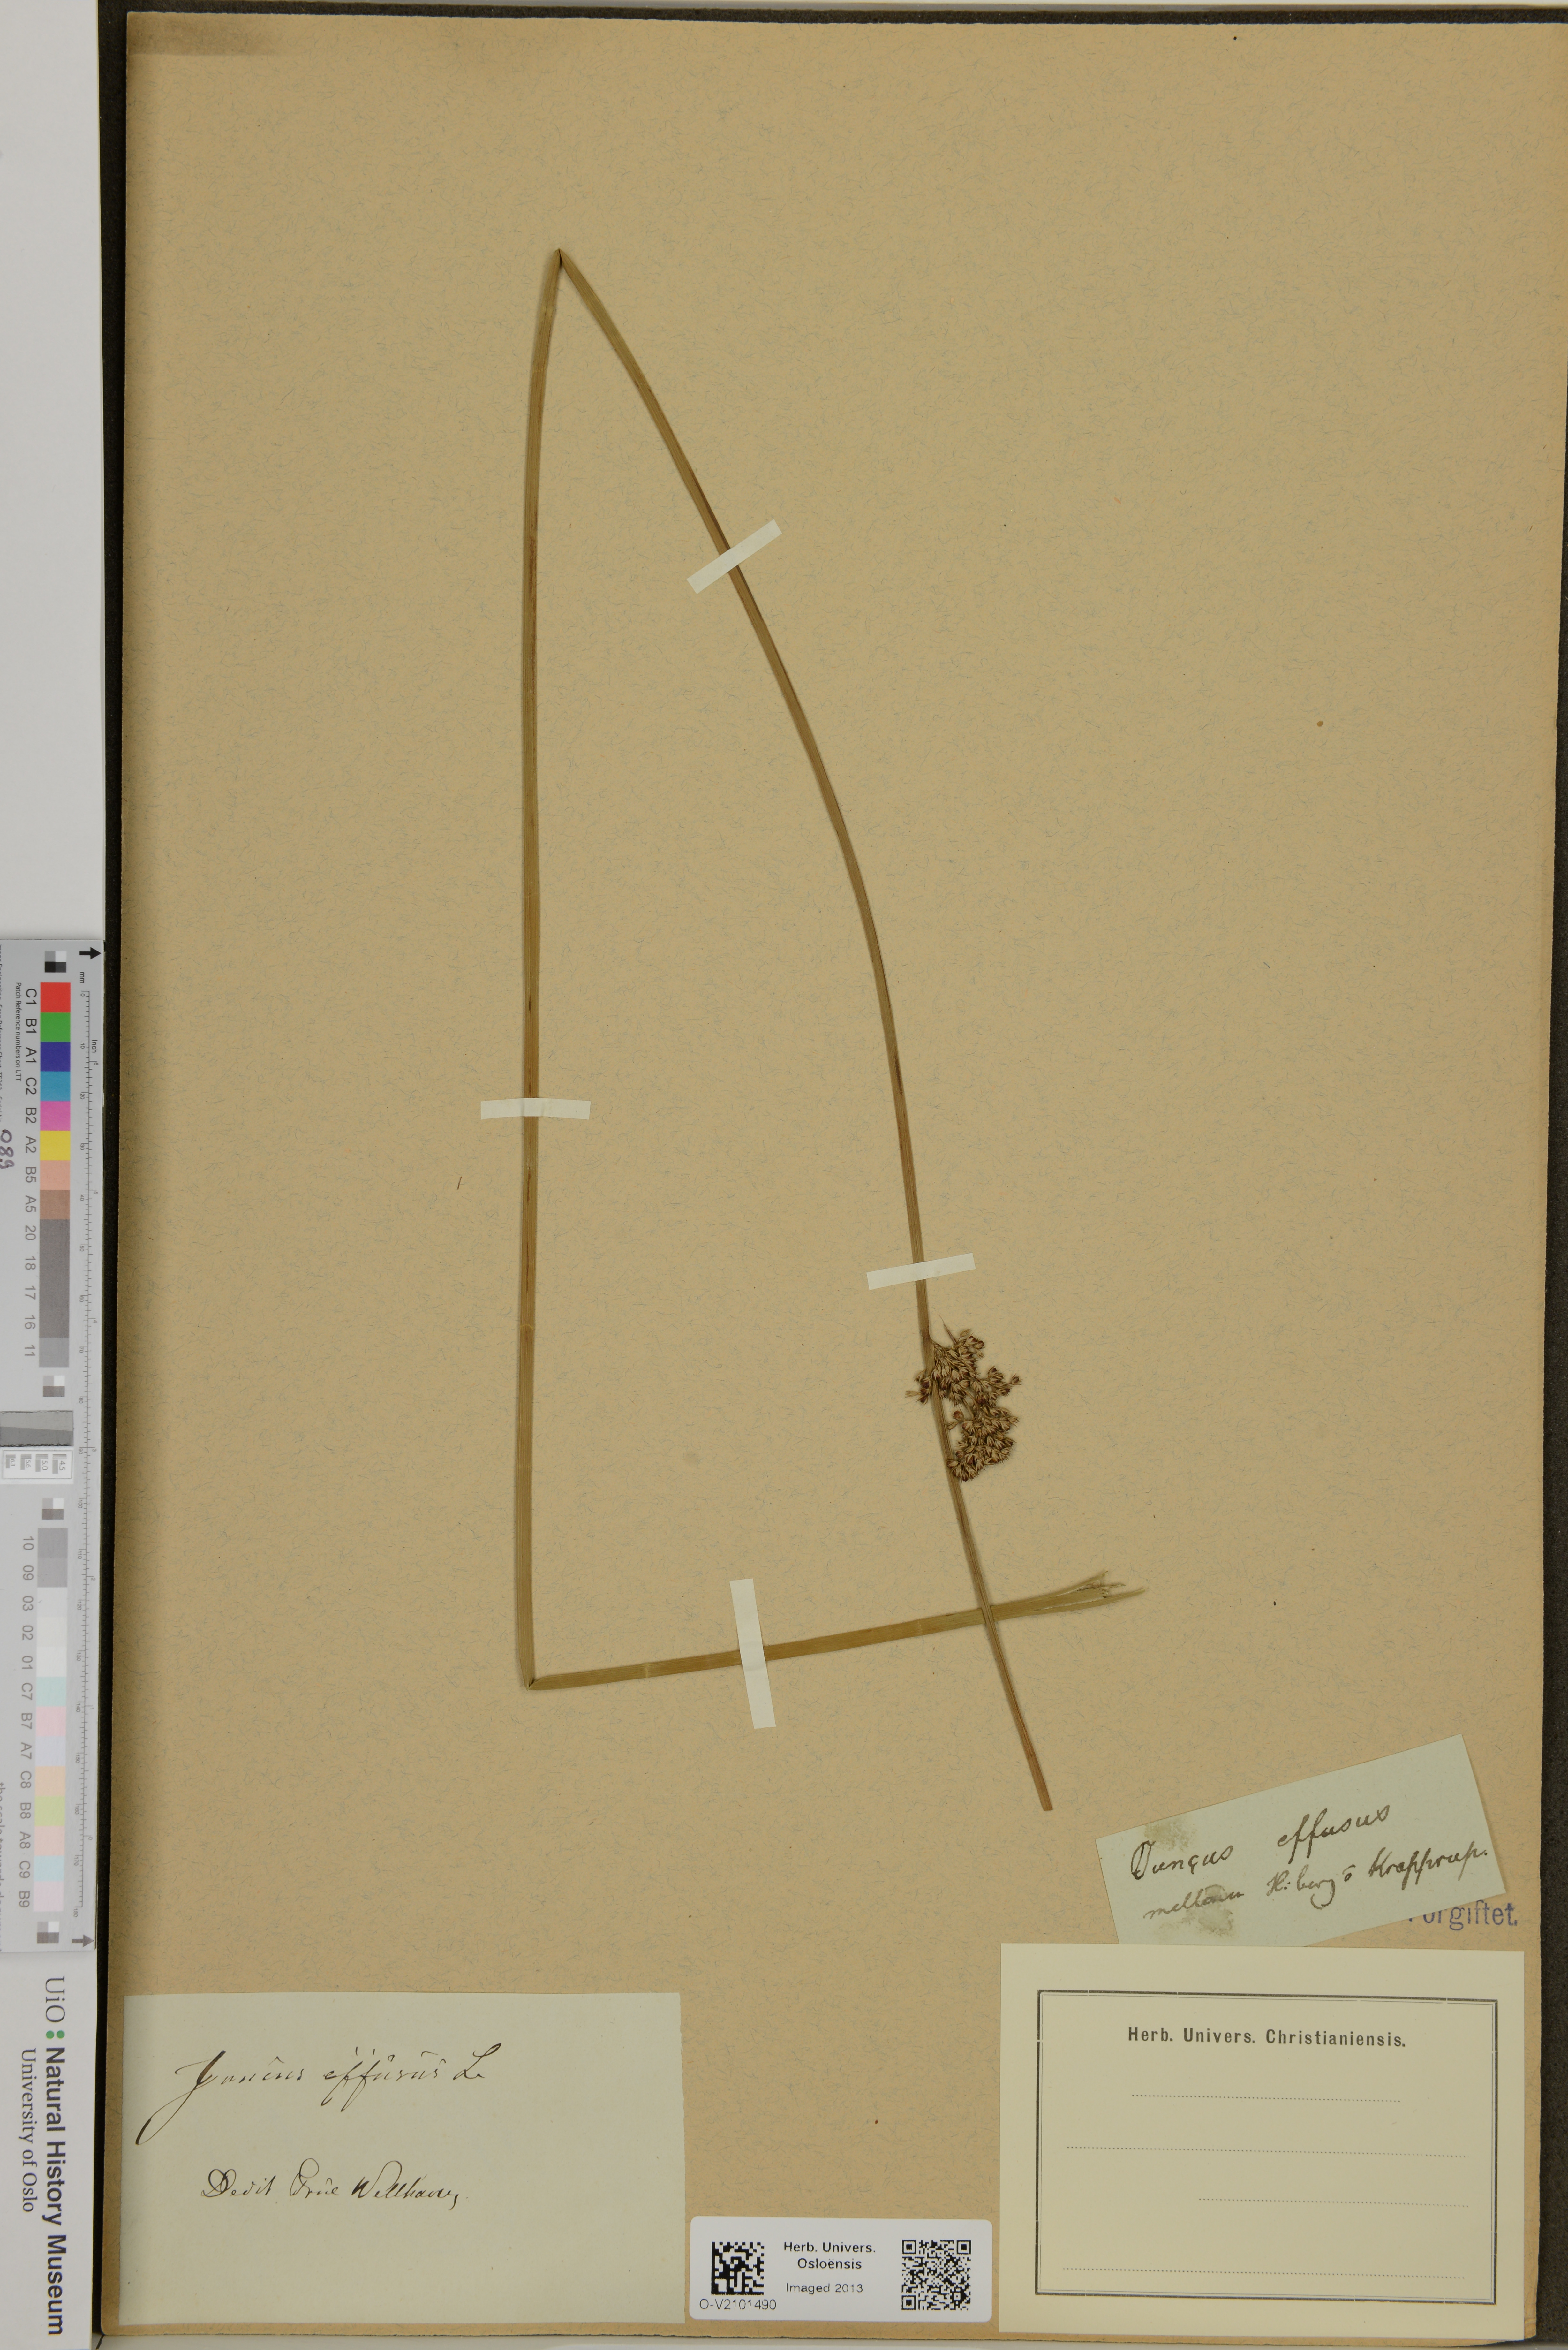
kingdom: Plantae
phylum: Tracheophyta
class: Liliopsida
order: Poales
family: Juncaceae
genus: Juncus
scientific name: Juncus effusus
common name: Soft rush
